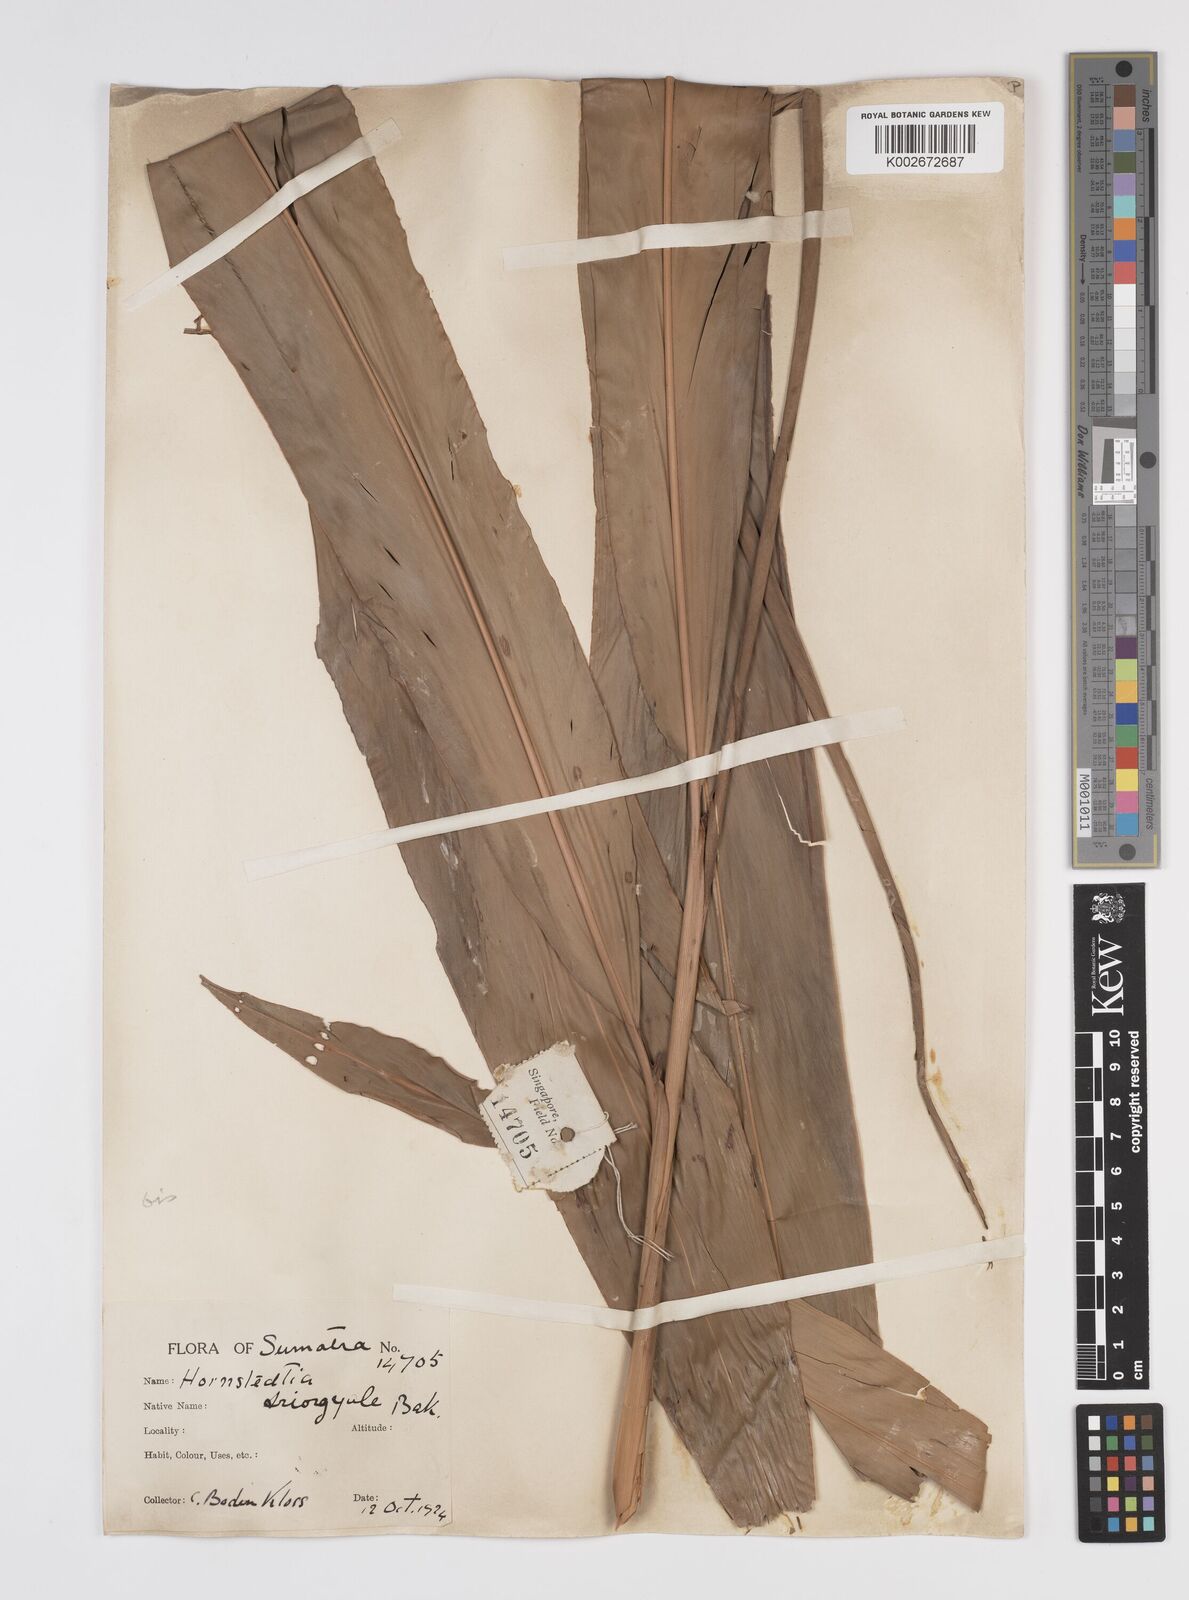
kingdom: Plantae
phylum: Tracheophyta
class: Liliopsida
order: Zingiberales
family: Zingiberaceae
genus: Etlingera
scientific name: Etlingera littoralis
